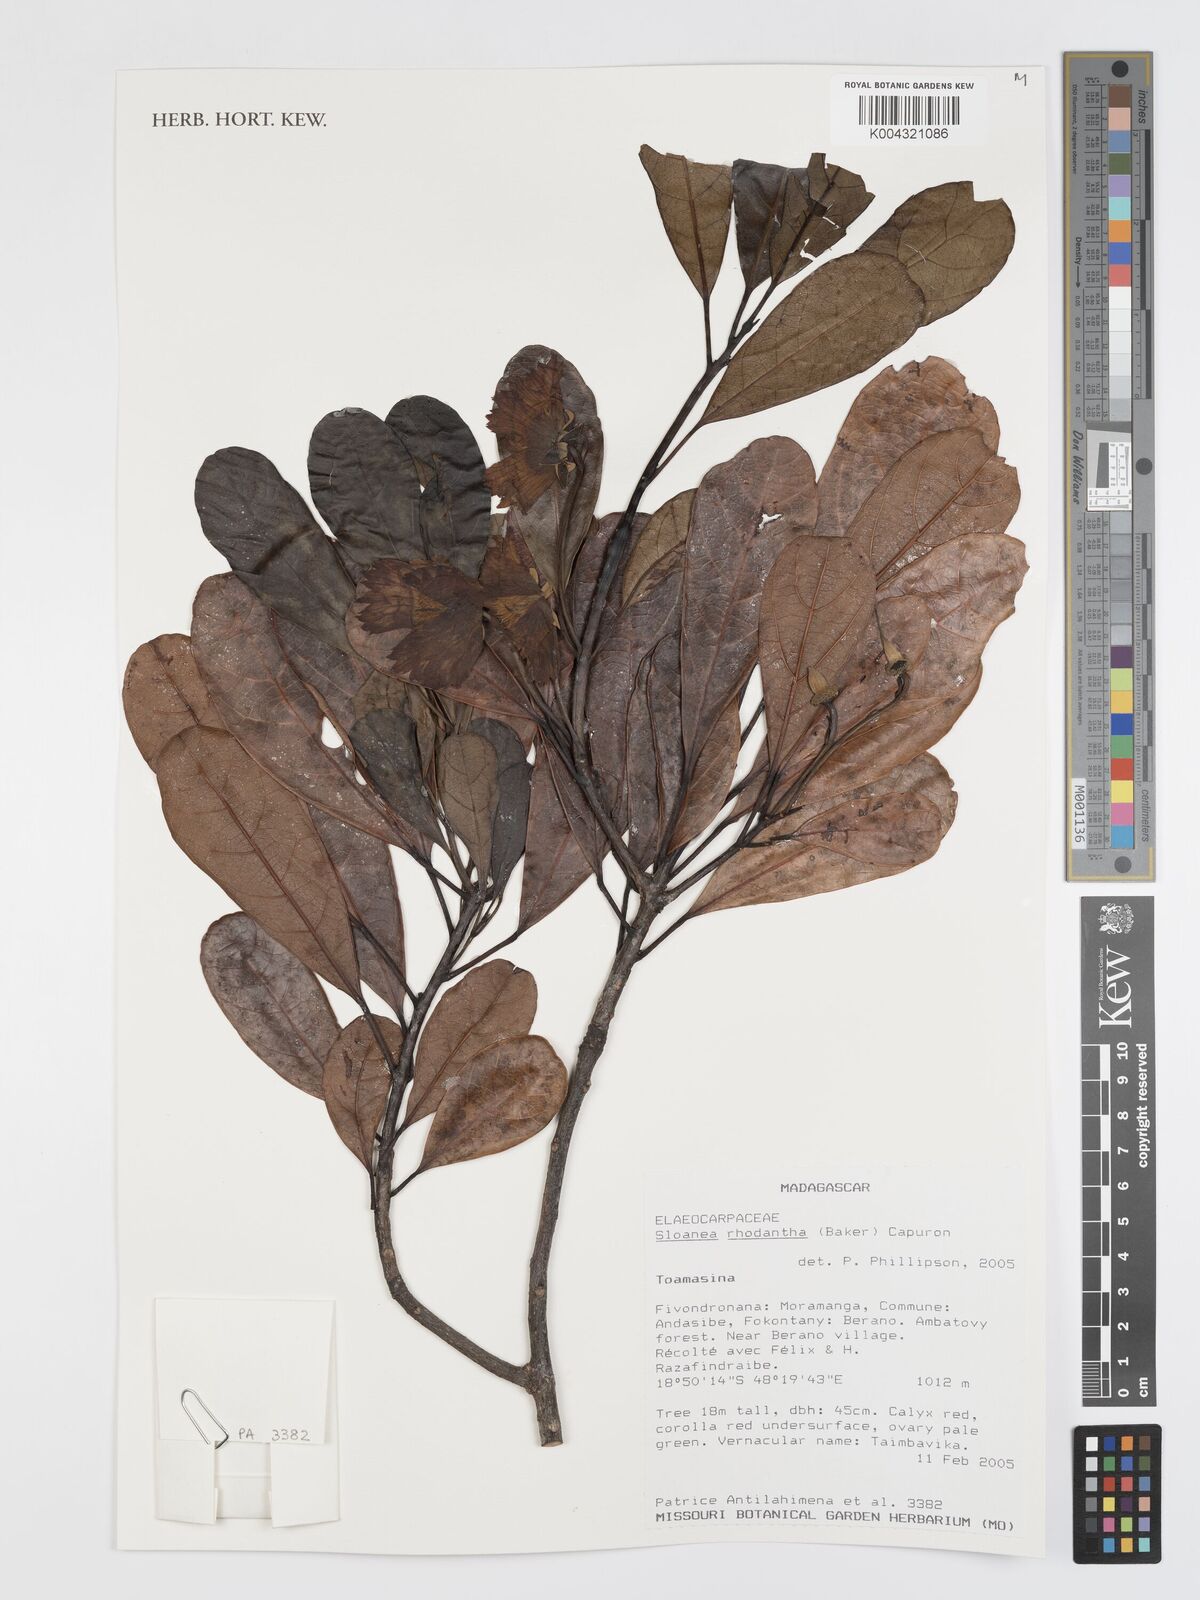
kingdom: Plantae
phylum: Tracheophyta
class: Magnoliopsida
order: Oxalidales
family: Elaeocarpaceae
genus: Sloanea
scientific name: Sloanea rhodantha
